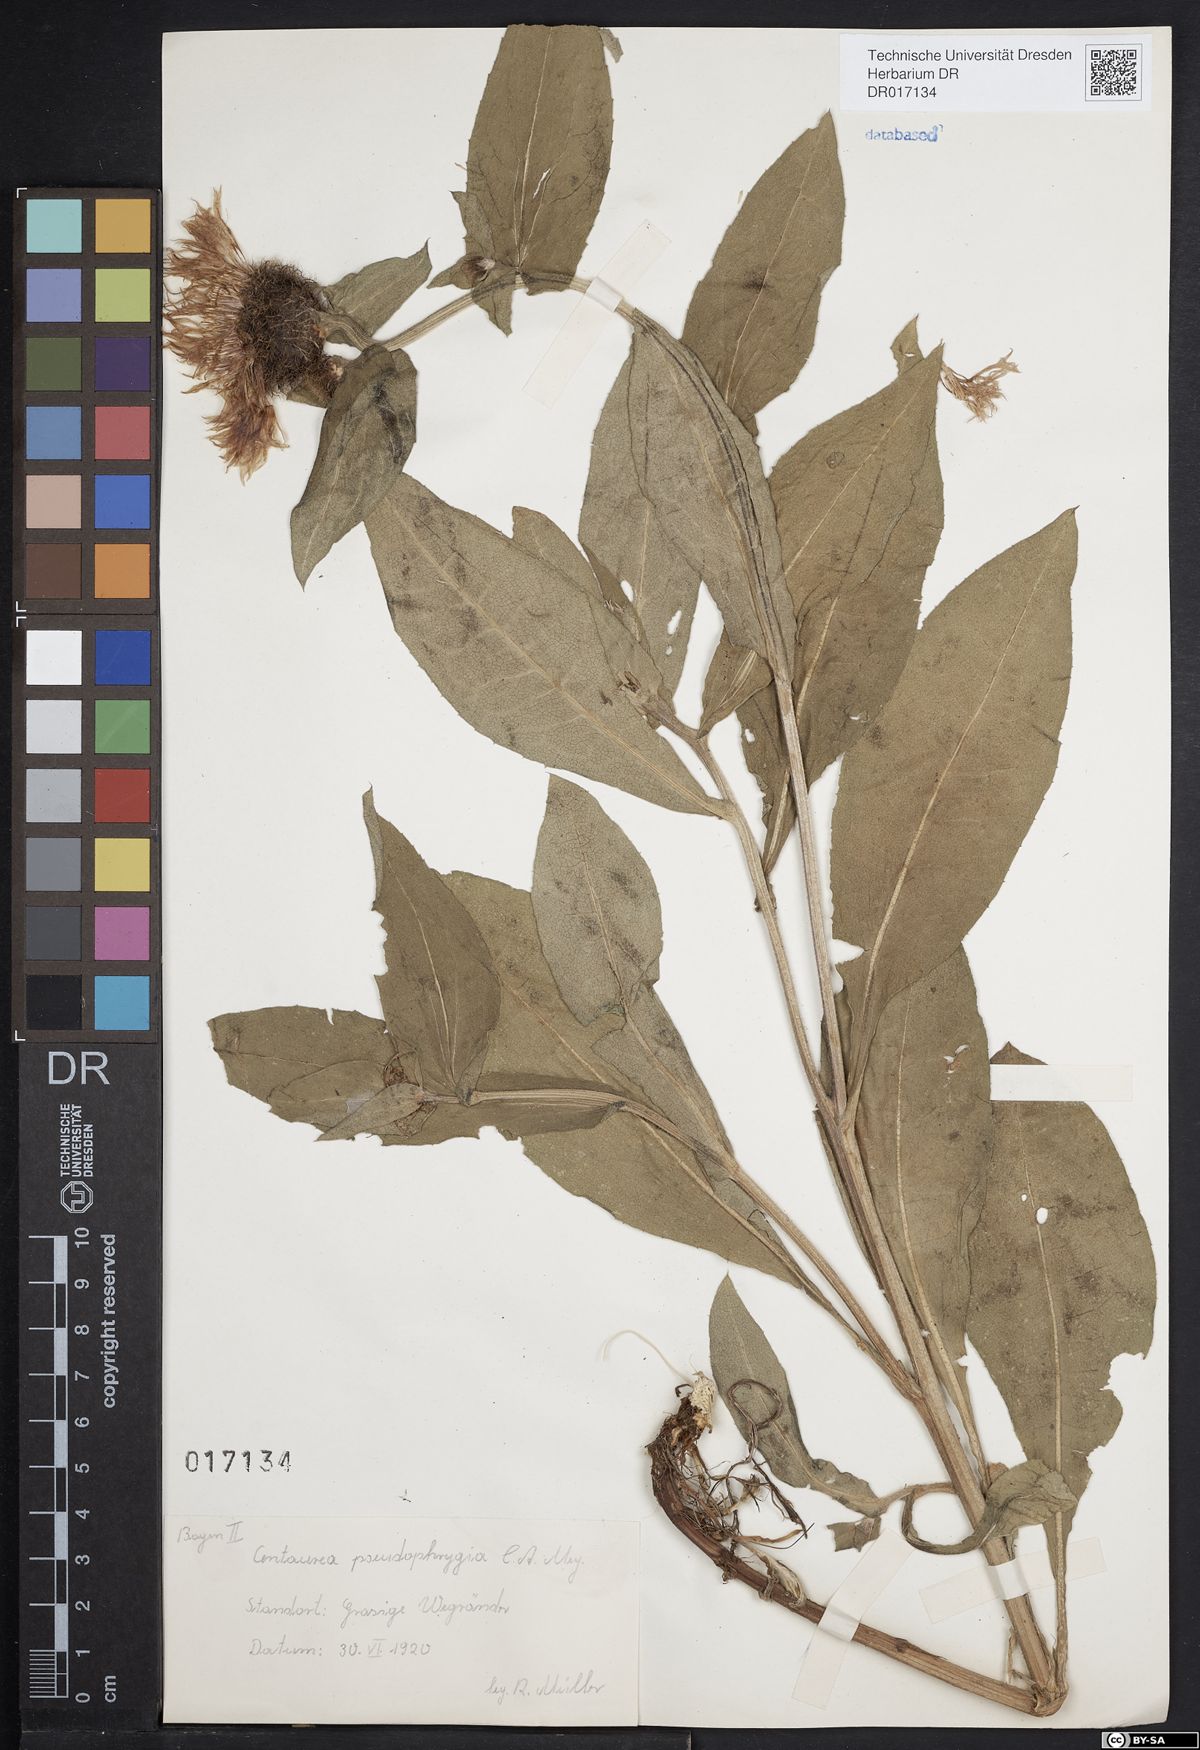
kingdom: Plantae
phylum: Tracheophyta
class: Magnoliopsida
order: Asterales
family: Asteraceae
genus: Centaurea
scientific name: Centaurea pseudophrygia
